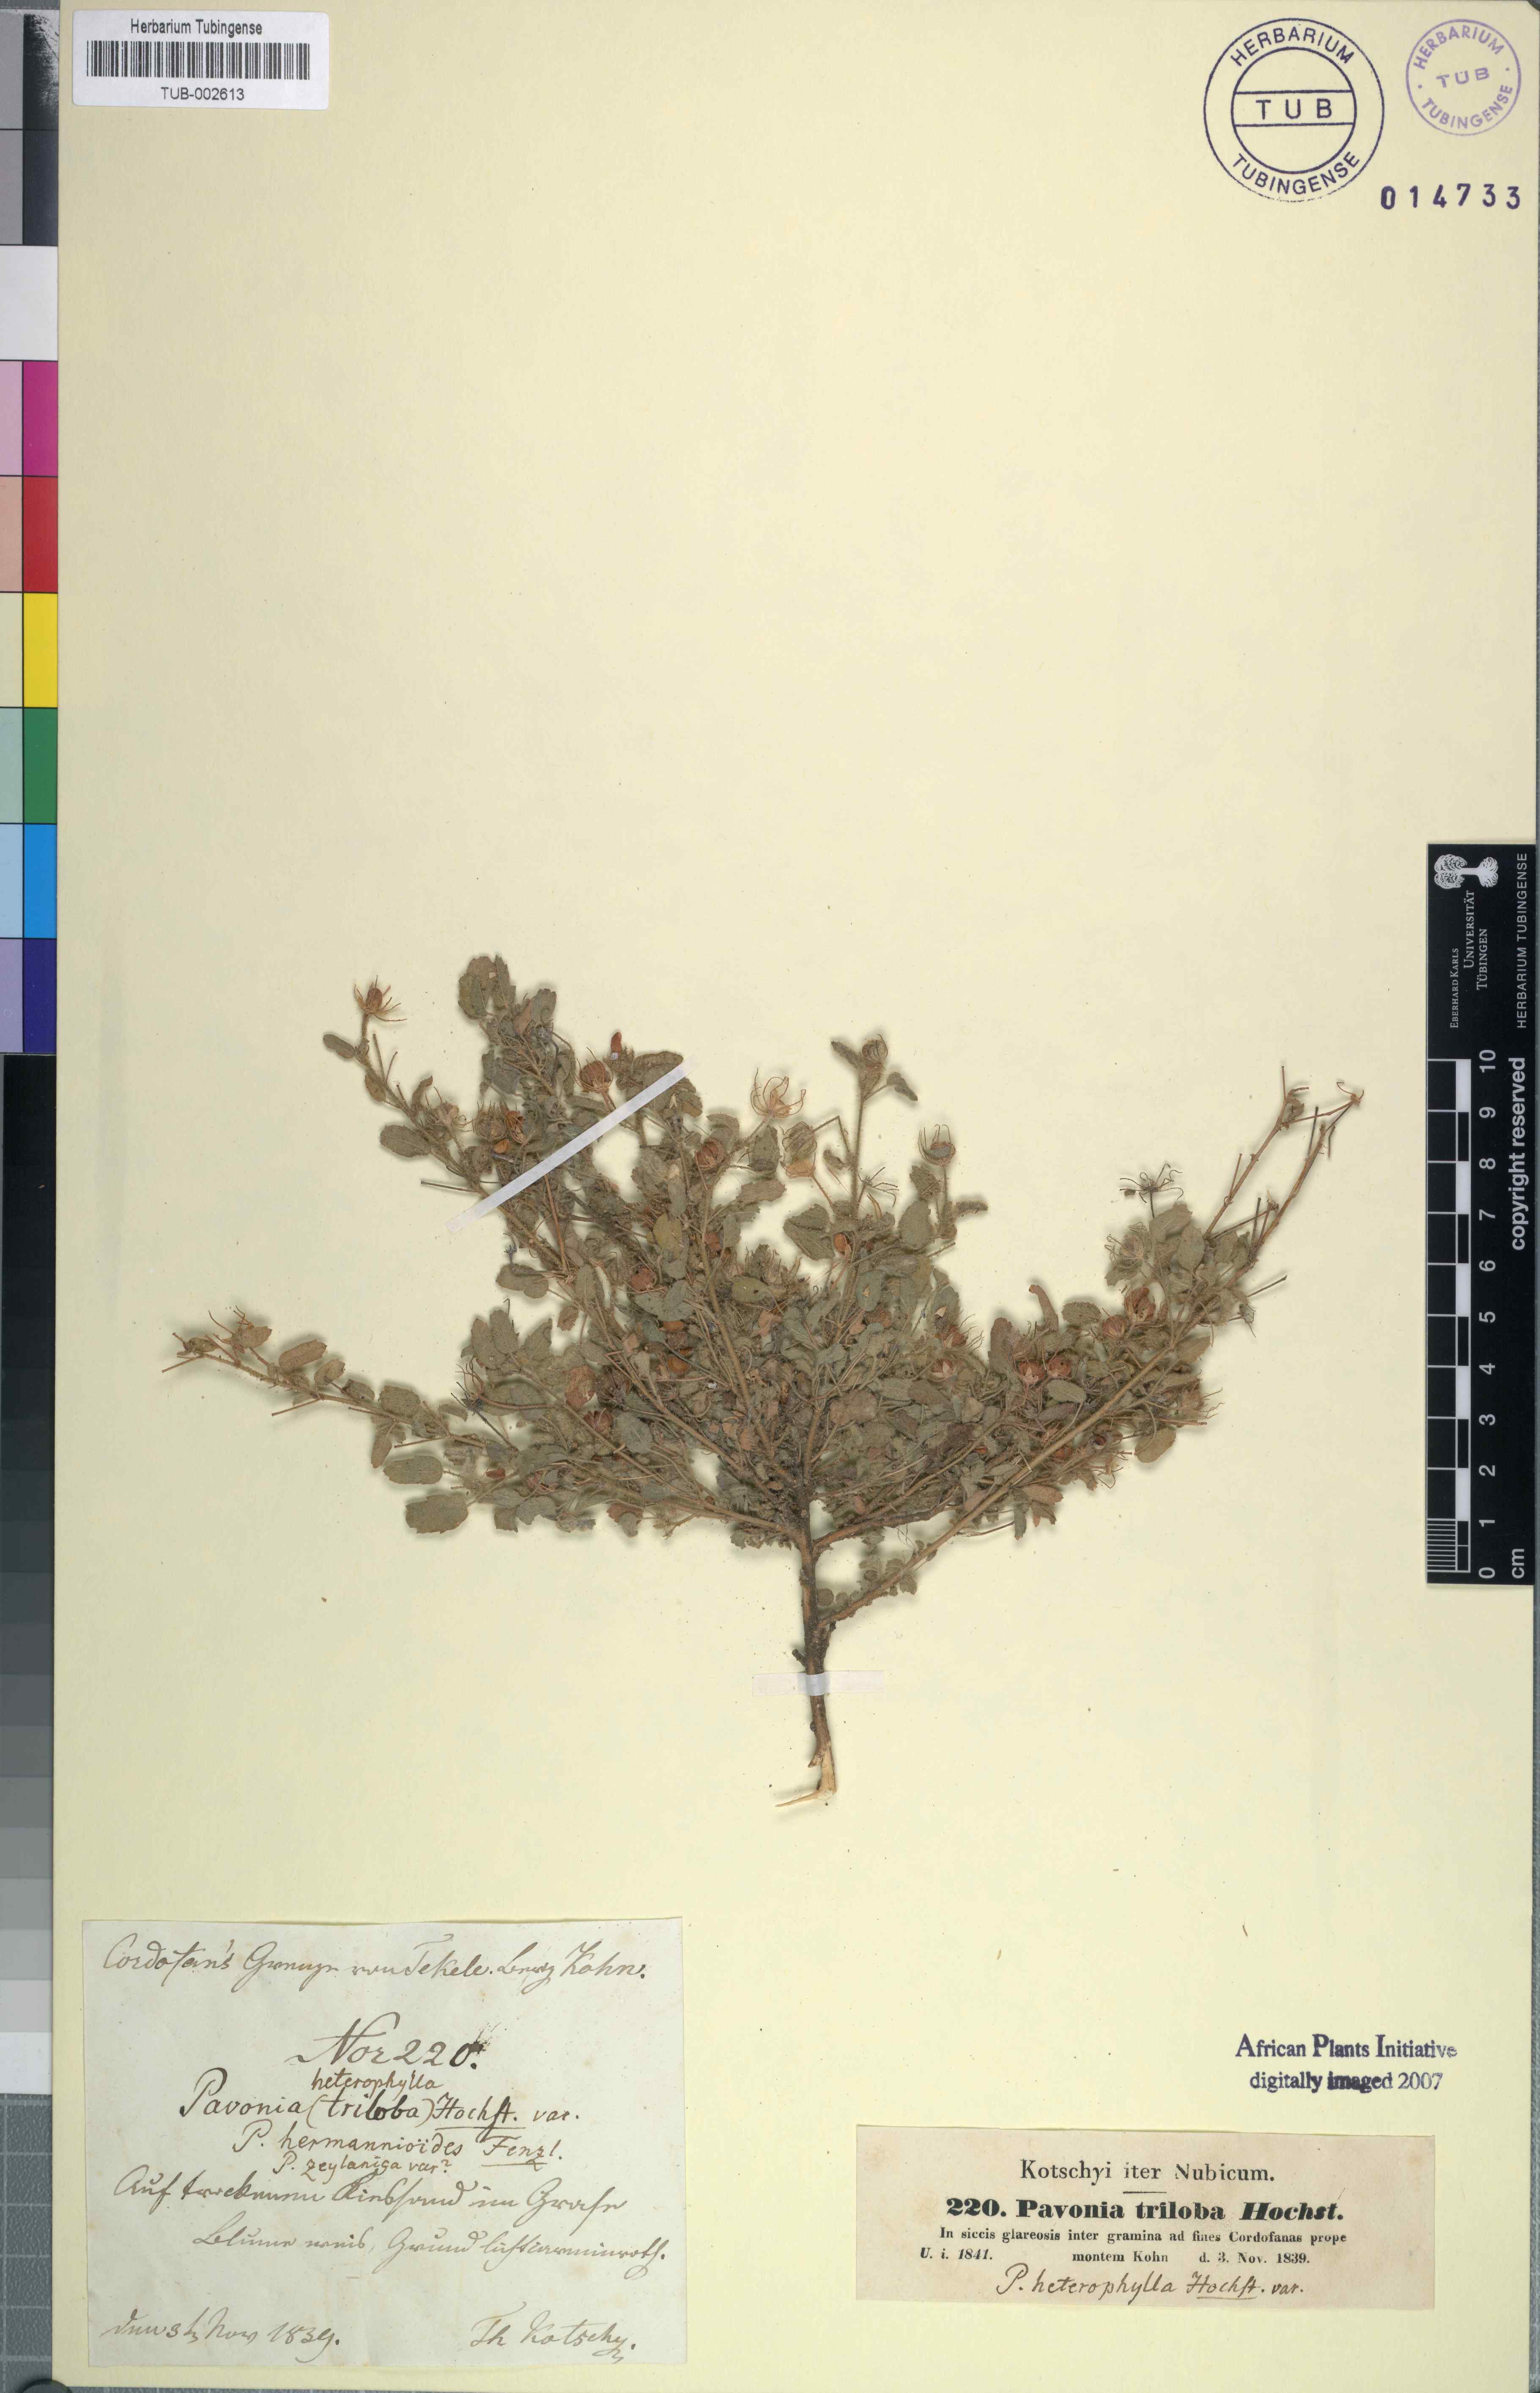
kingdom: Plantae
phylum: Tracheophyta
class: Magnoliopsida
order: Malvales
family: Malvaceae
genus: Pavonia
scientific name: Pavonia triloba
